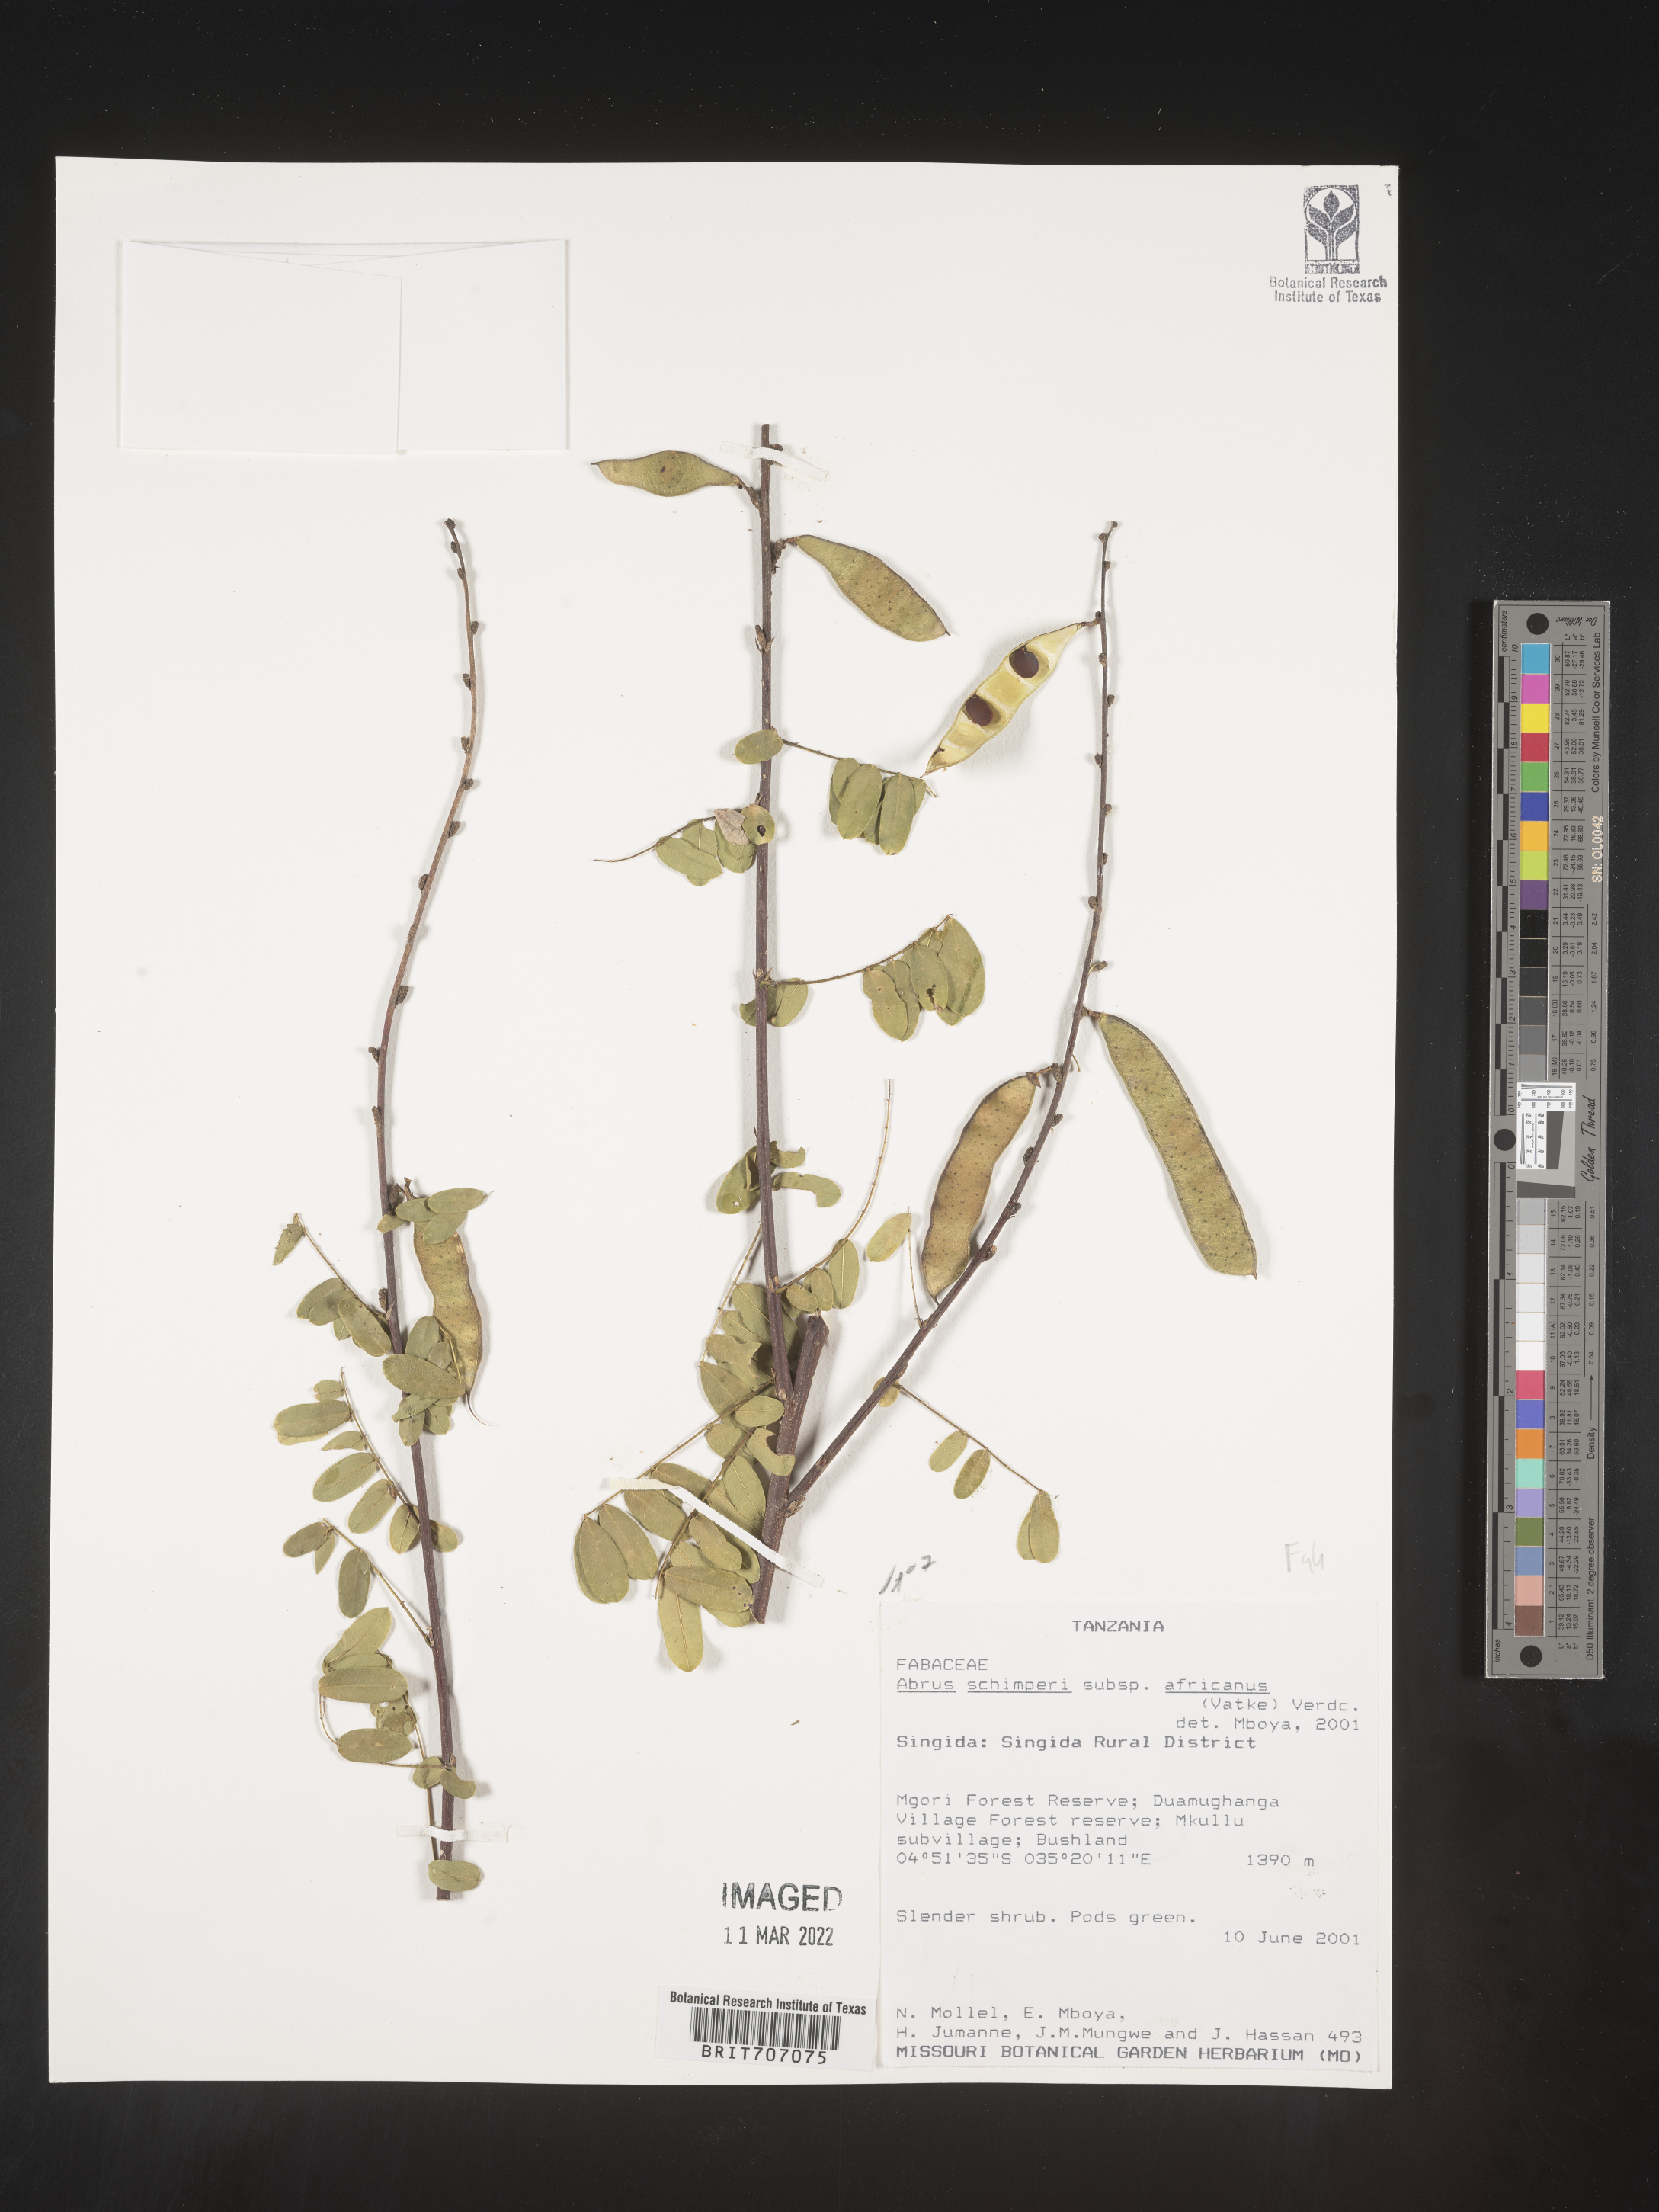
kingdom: Plantae
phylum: Tracheophyta
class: Magnoliopsida
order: Fabales
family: Fabaceae
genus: Abrus
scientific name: Abrus
